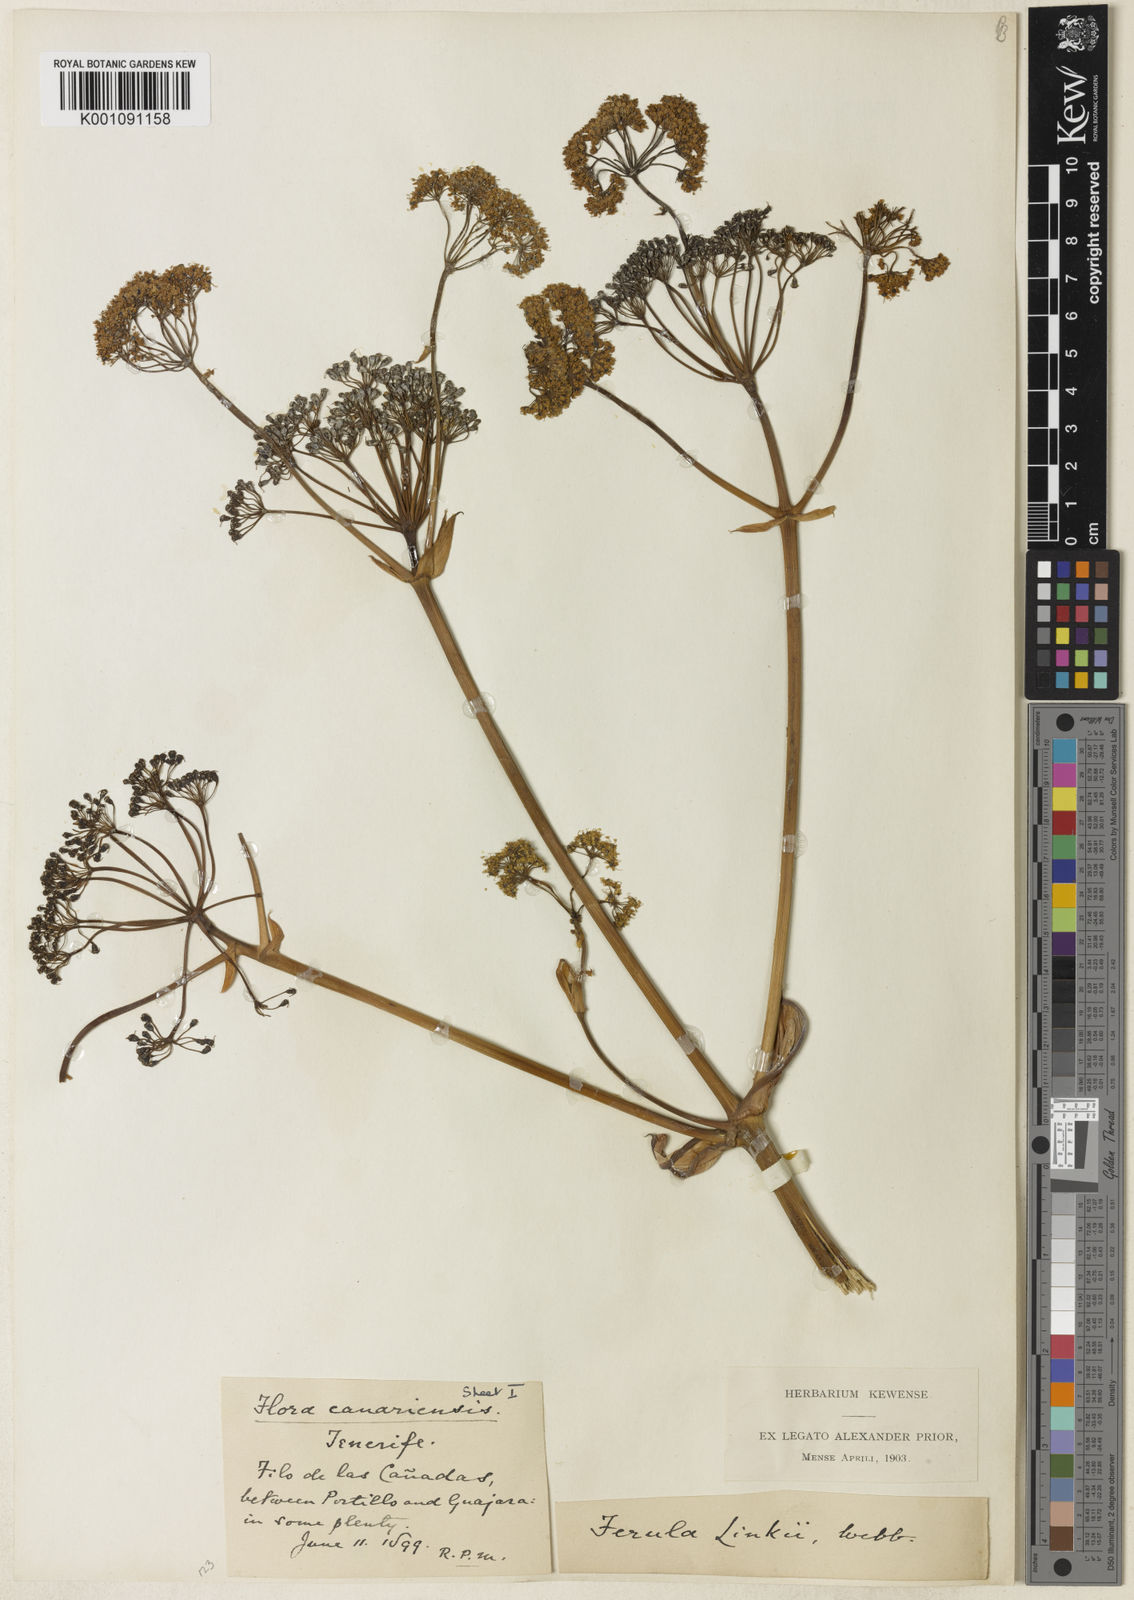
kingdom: Plantae
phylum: Tracheophyta
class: Magnoliopsida
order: Apiales
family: Apiaceae
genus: Ferula
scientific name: Ferula communis
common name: Giant fennel
